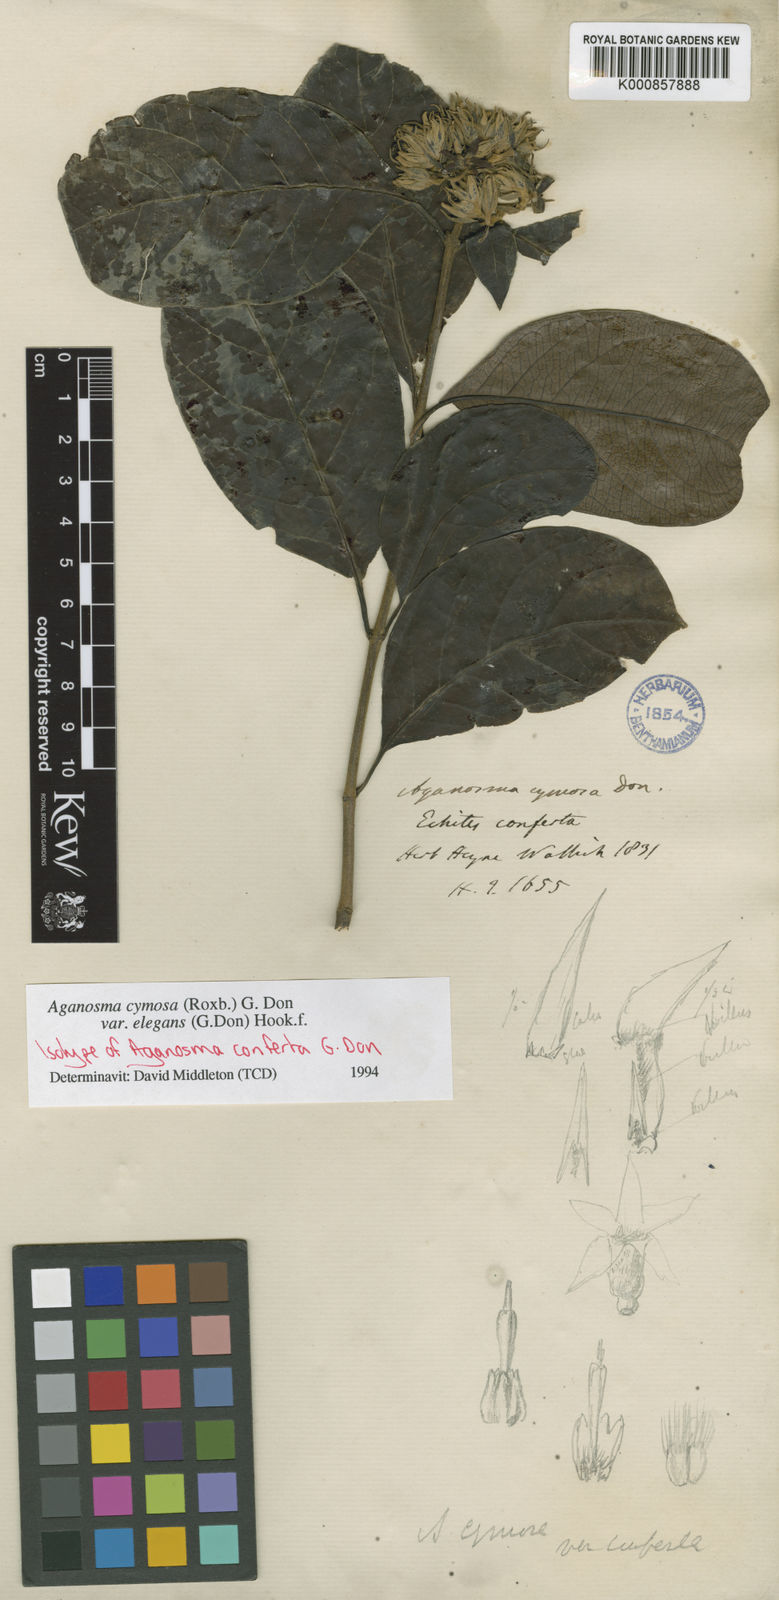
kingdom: Plantae
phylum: Tracheophyta
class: Magnoliopsida
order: Gentianales
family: Apocynaceae
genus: Aganosma
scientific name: Aganosma cymosa
